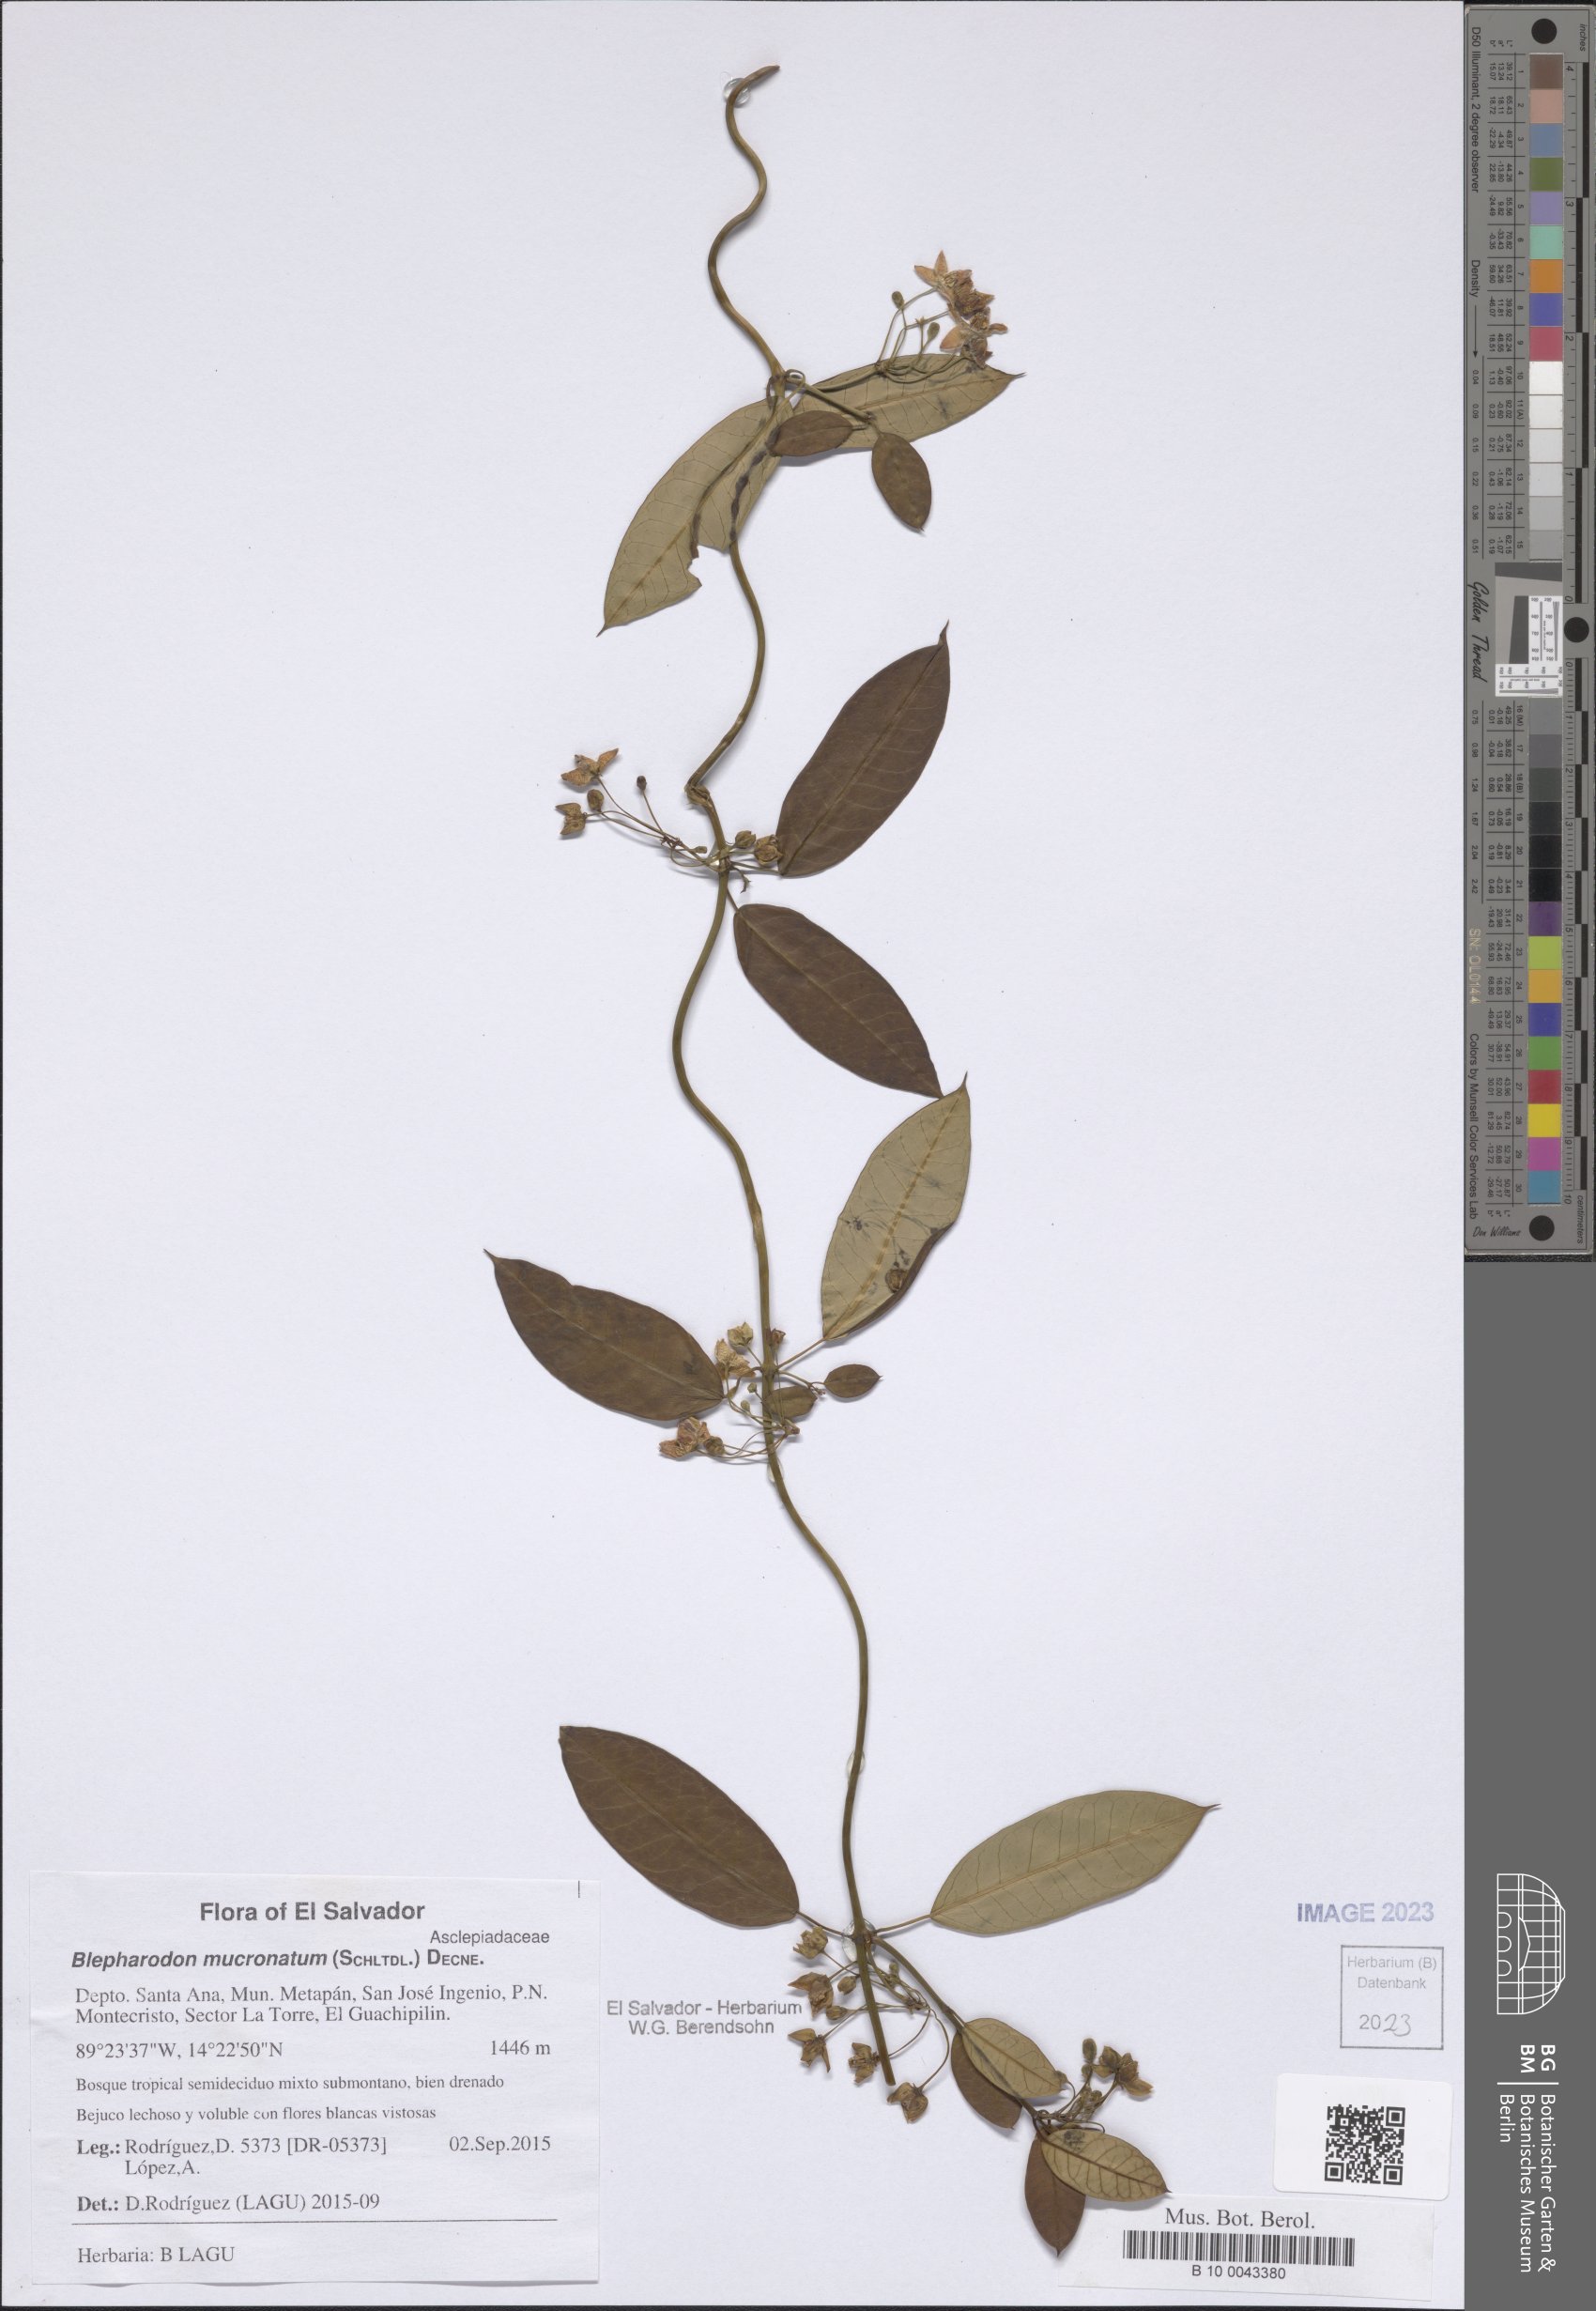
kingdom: Plantae
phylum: Tracheophyta
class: Magnoliopsida
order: Gentianales
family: Apocynaceae
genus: Vailia
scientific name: Vailia anomala
